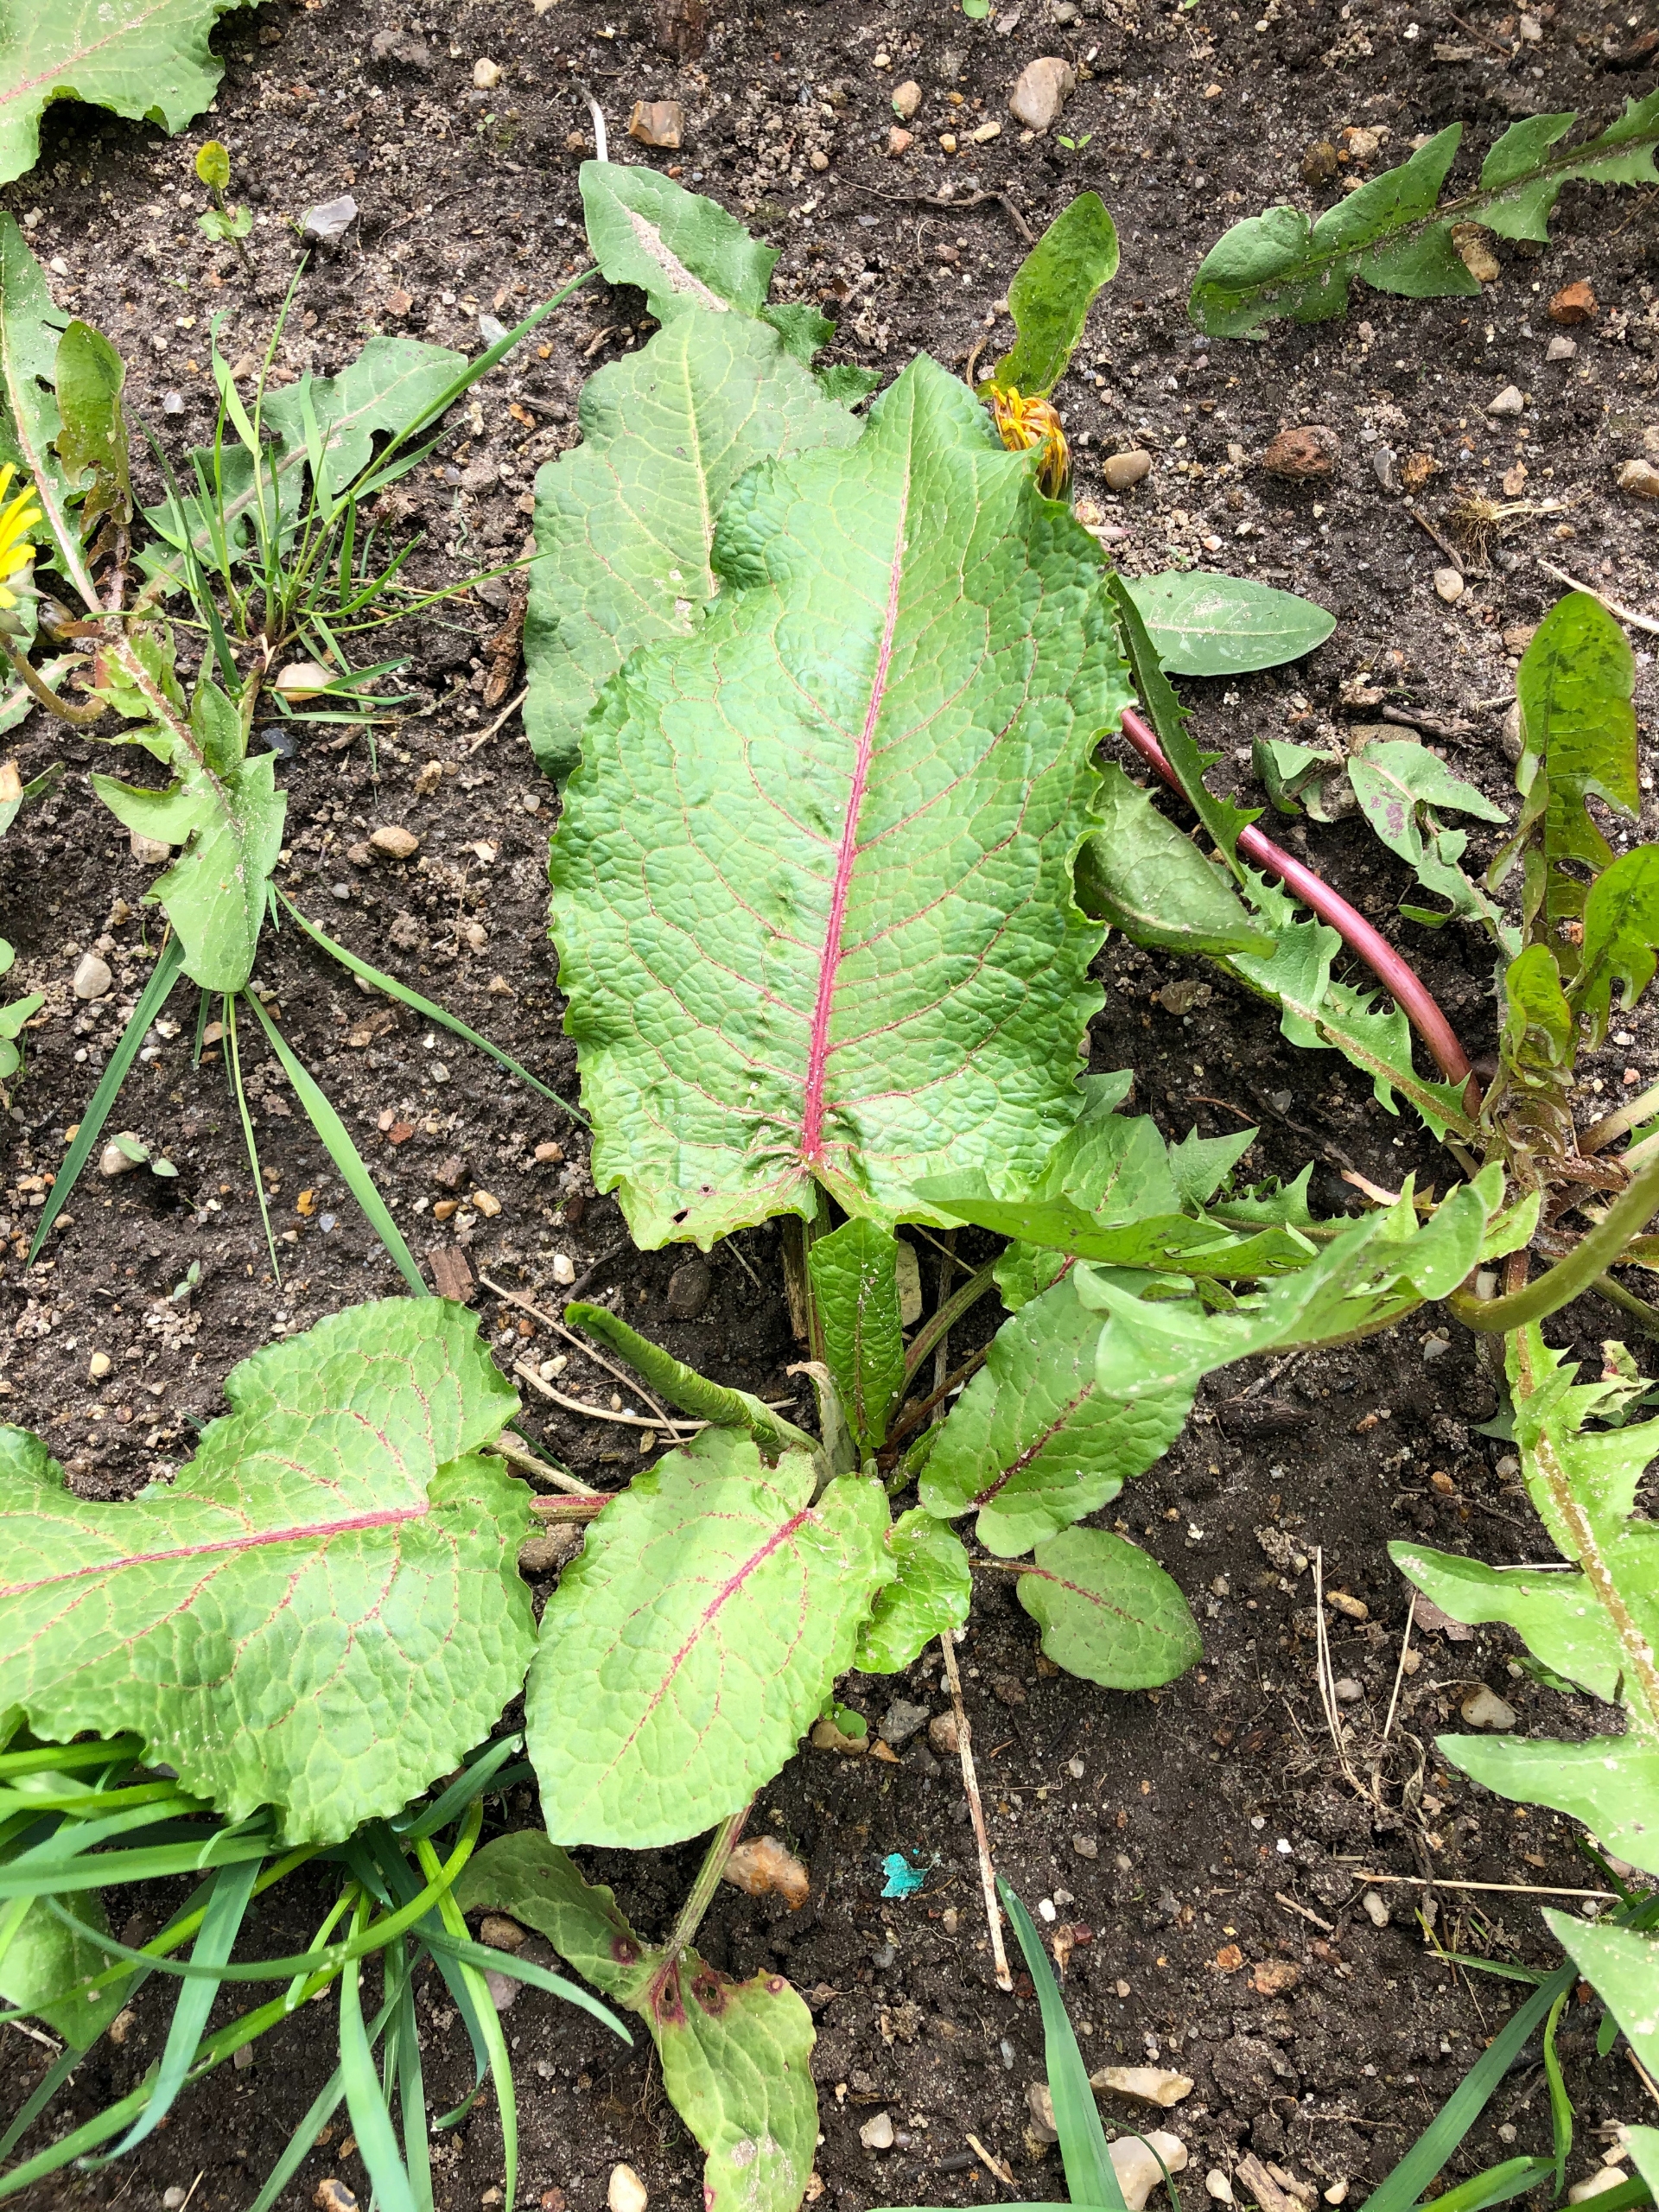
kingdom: Plantae
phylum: Tracheophyta
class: Magnoliopsida
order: Caryophyllales
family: Polygonaceae
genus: Rumex
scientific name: Rumex obtusifolius
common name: Butbladet skræppe
